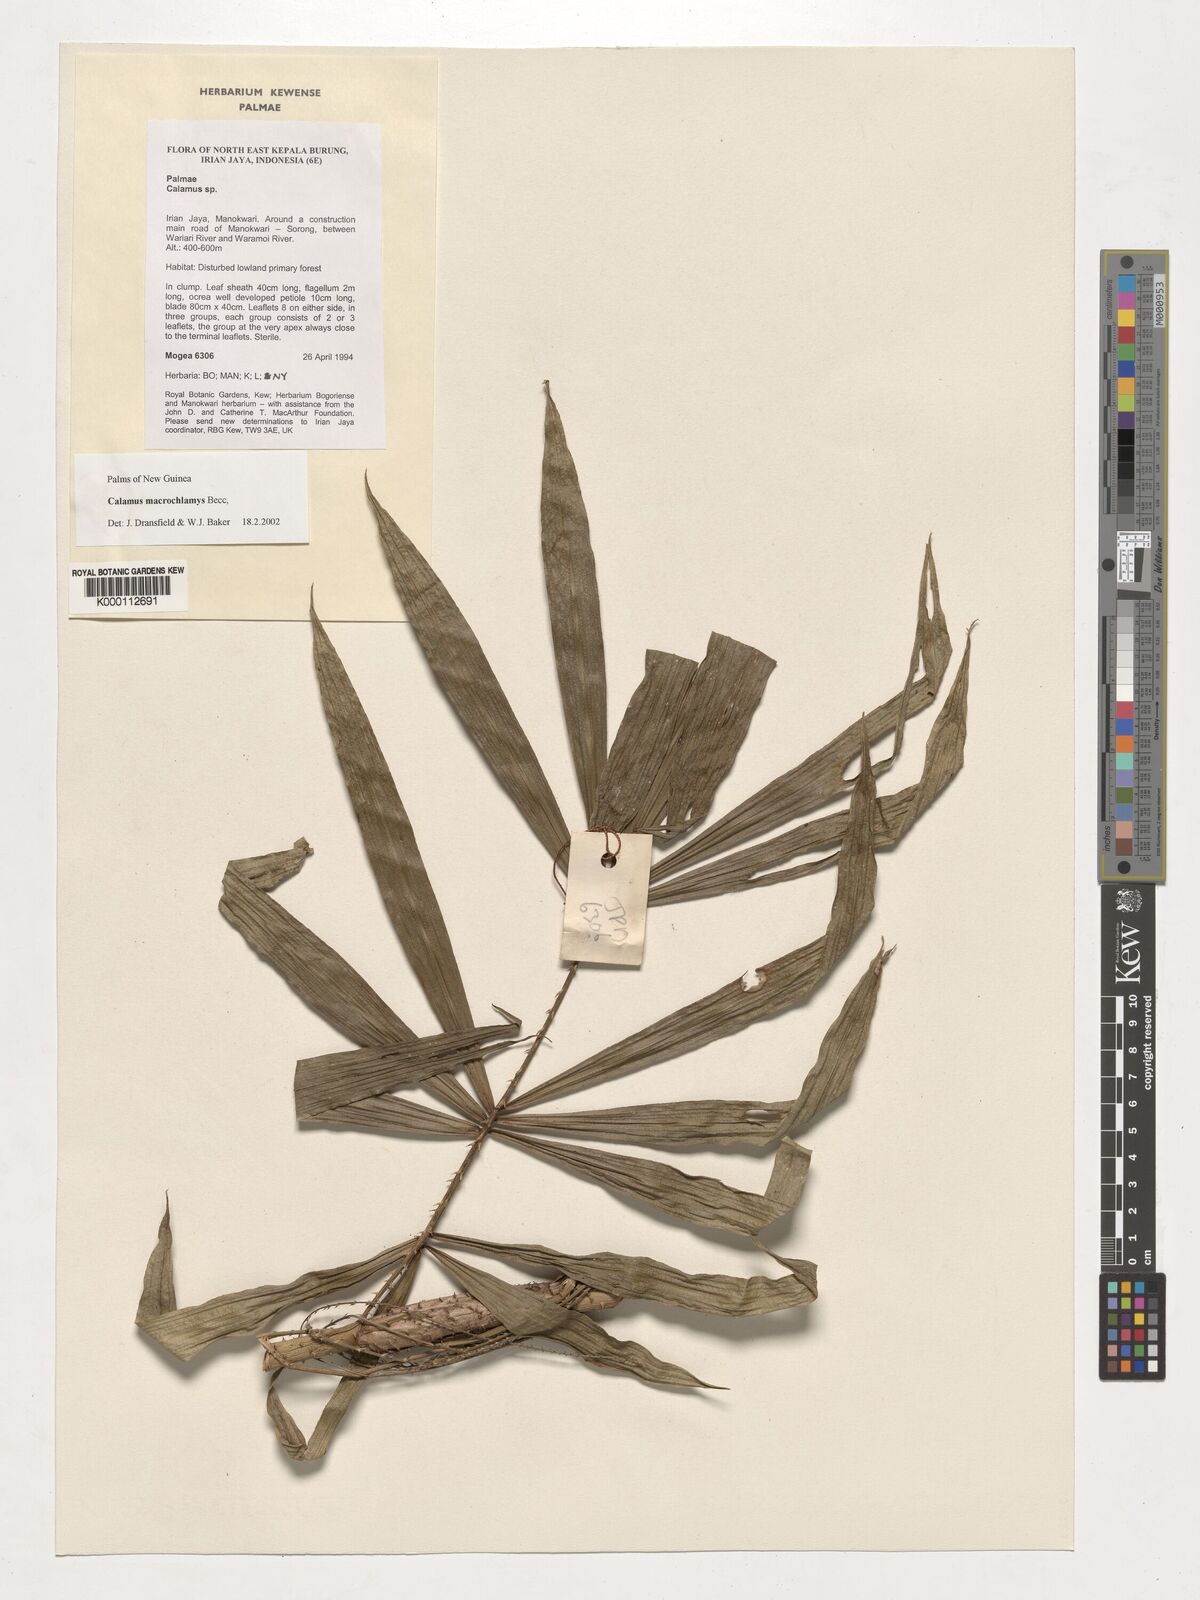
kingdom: Plantae
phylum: Tracheophyta
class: Liliopsida
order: Arecales
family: Arecaceae
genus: Calamus
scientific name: Calamus macrochlamys
